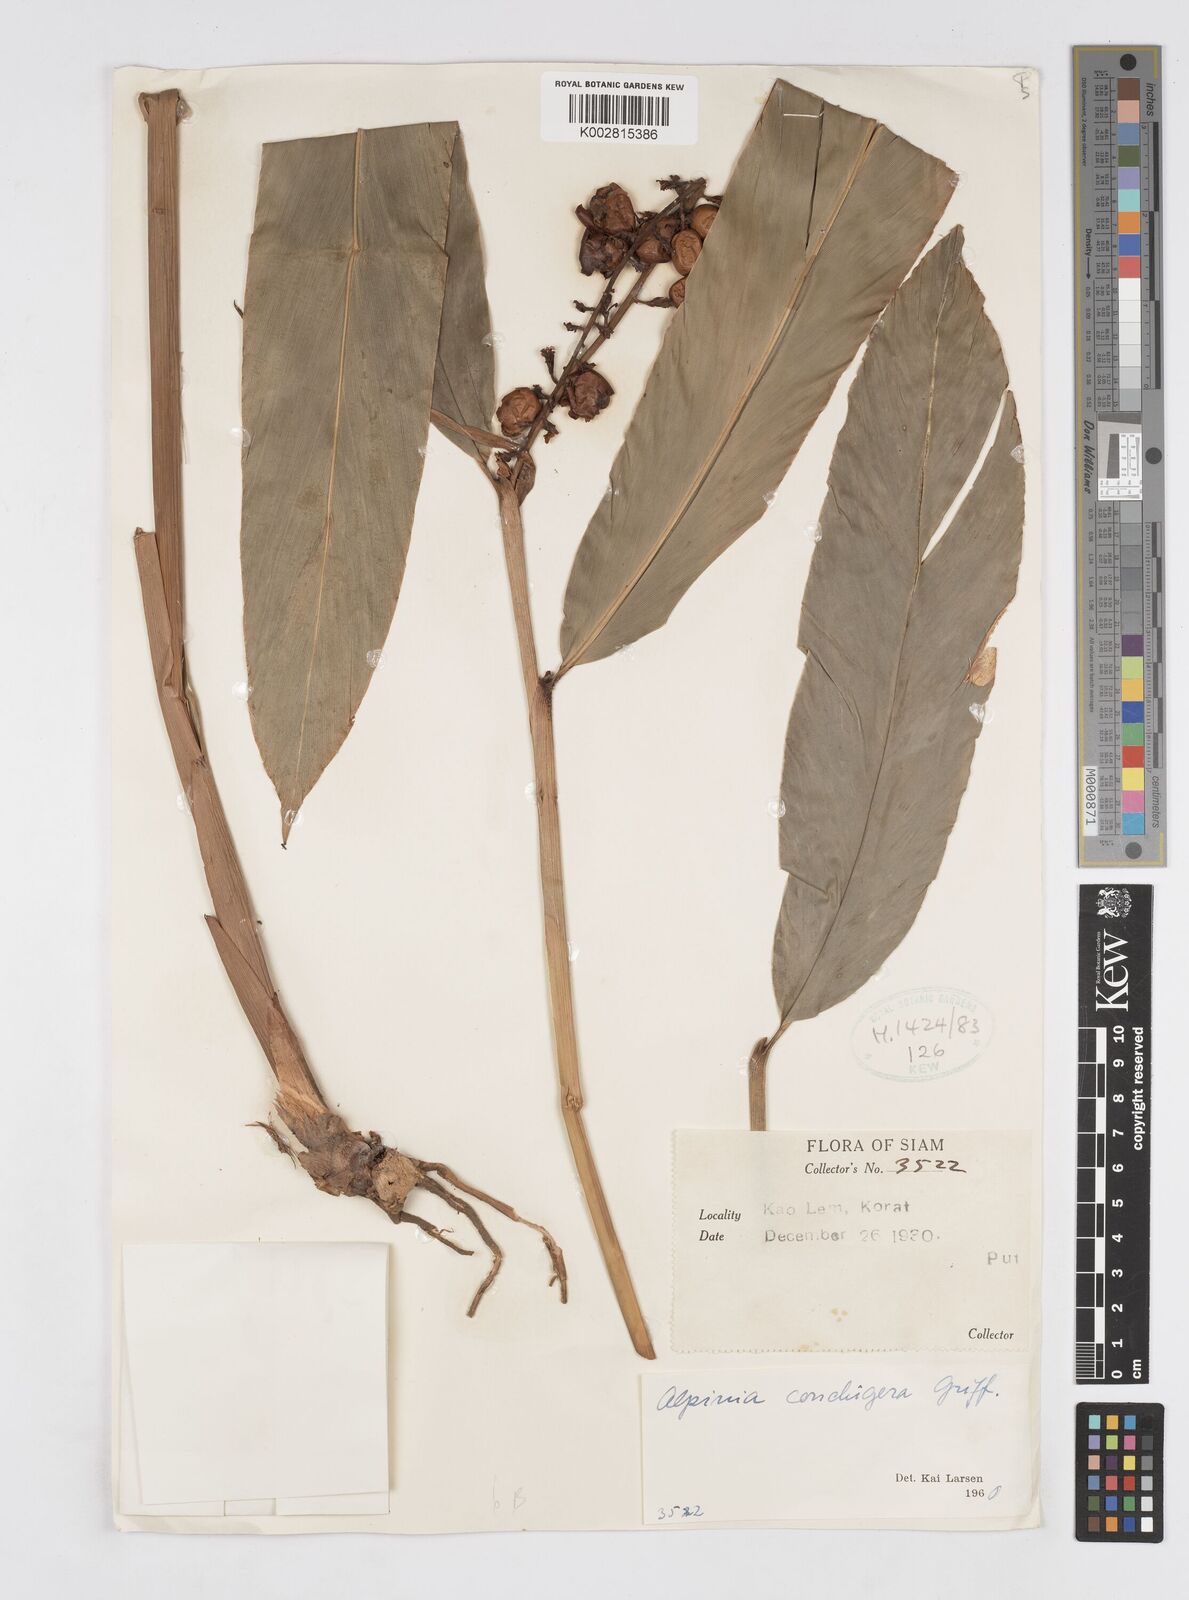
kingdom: Plantae
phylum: Tracheophyta
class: Liliopsida
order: Zingiberales
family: Zingiberaceae
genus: Alpinia
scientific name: Alpinia conchigera
